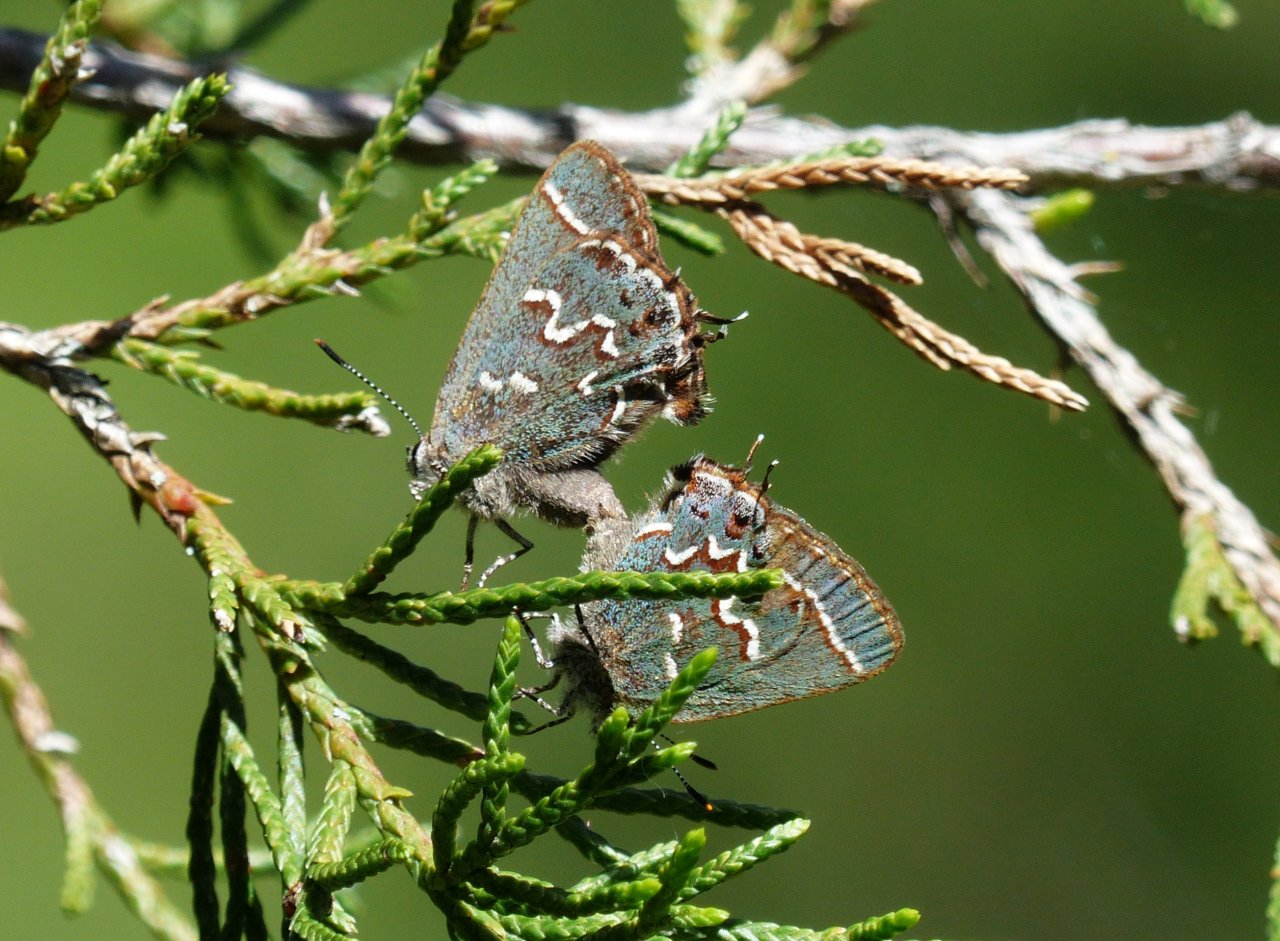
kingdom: Animalia
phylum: Arthropoda
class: Insecta
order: Lepidoptera
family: Lycaenidae
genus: Mitoura
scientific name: Mitoura gryneus
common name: Juniper Hairstreak
